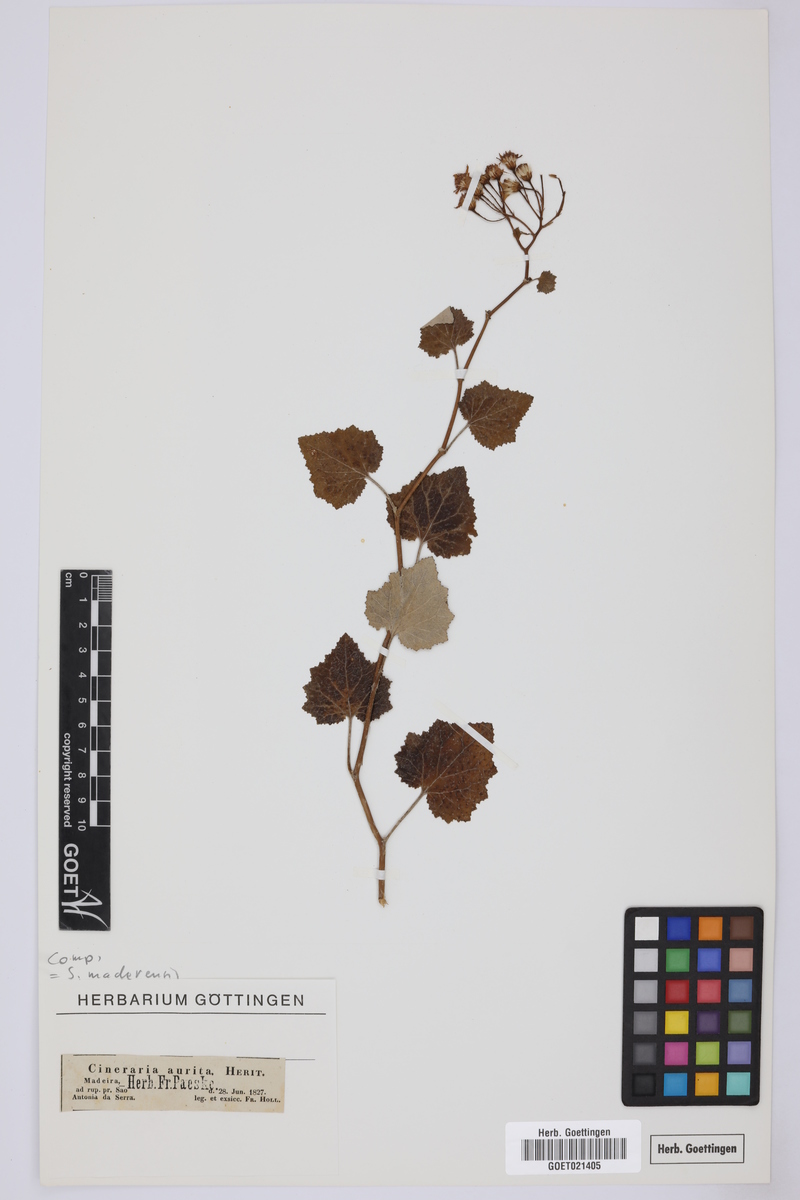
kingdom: Plantae
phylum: Tracheophyta
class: Magnoliopsida
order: Asterales
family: Asteraceae
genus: Pericallis
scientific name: Pericallis aurita
